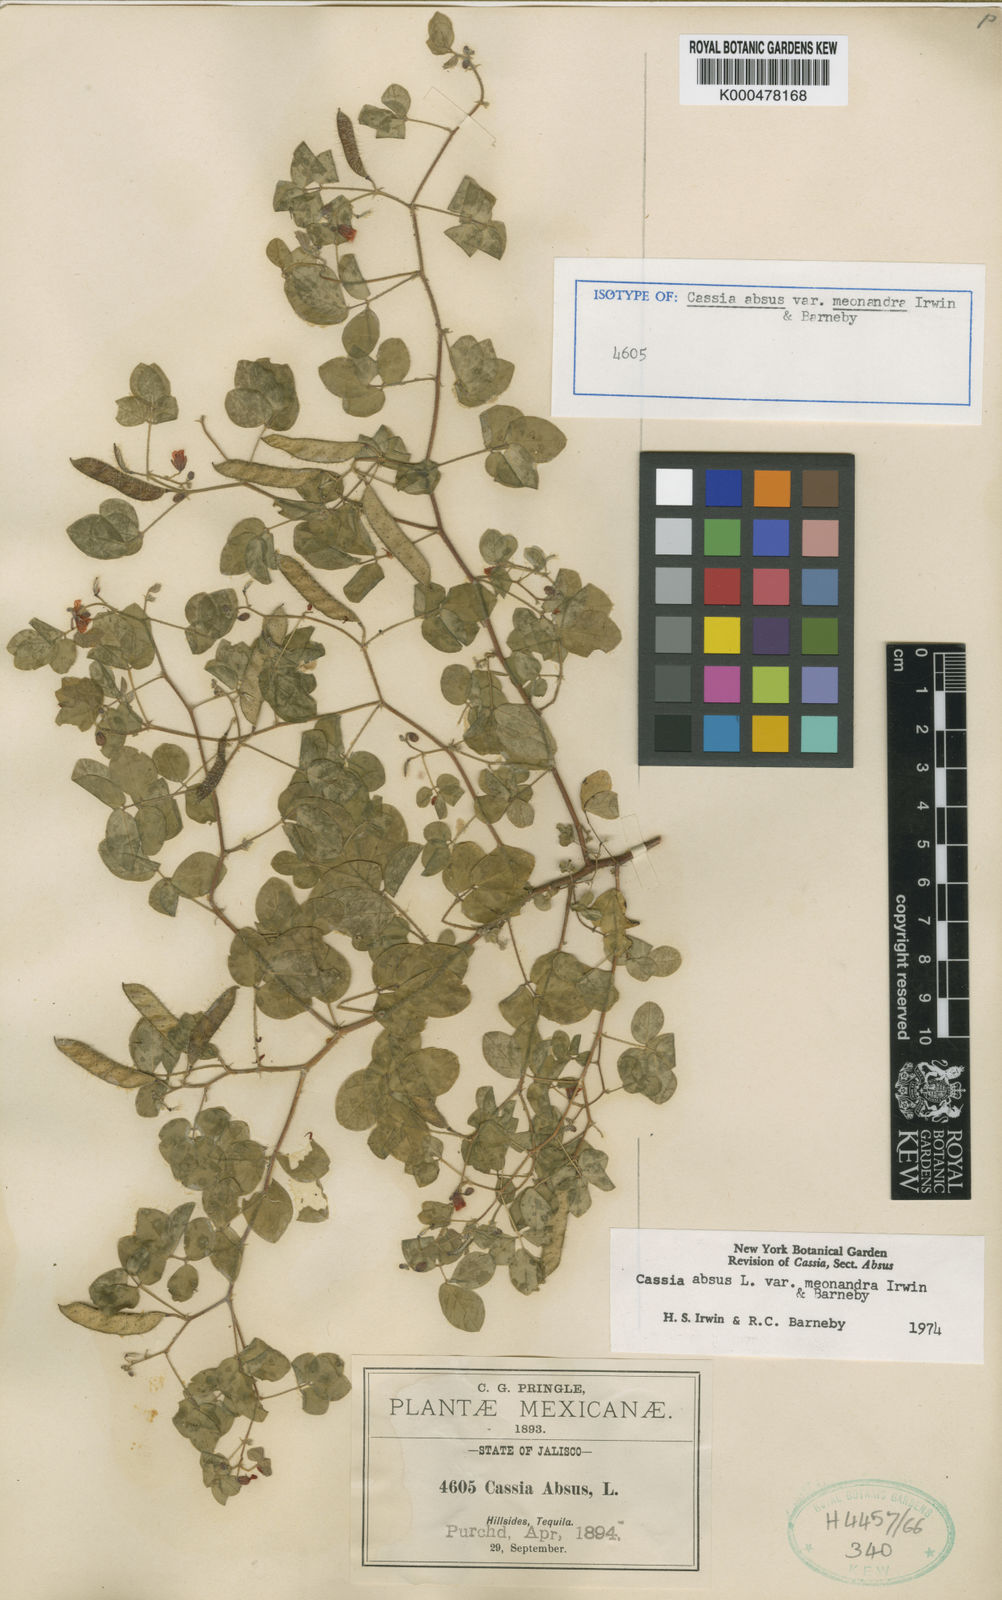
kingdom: Plantae
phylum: Tracheophyta
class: Magnoliopsida
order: Fabales
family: Fabaceae
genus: Chamaecrista
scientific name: Chamaecrista absus
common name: Tropical sensitive pea
